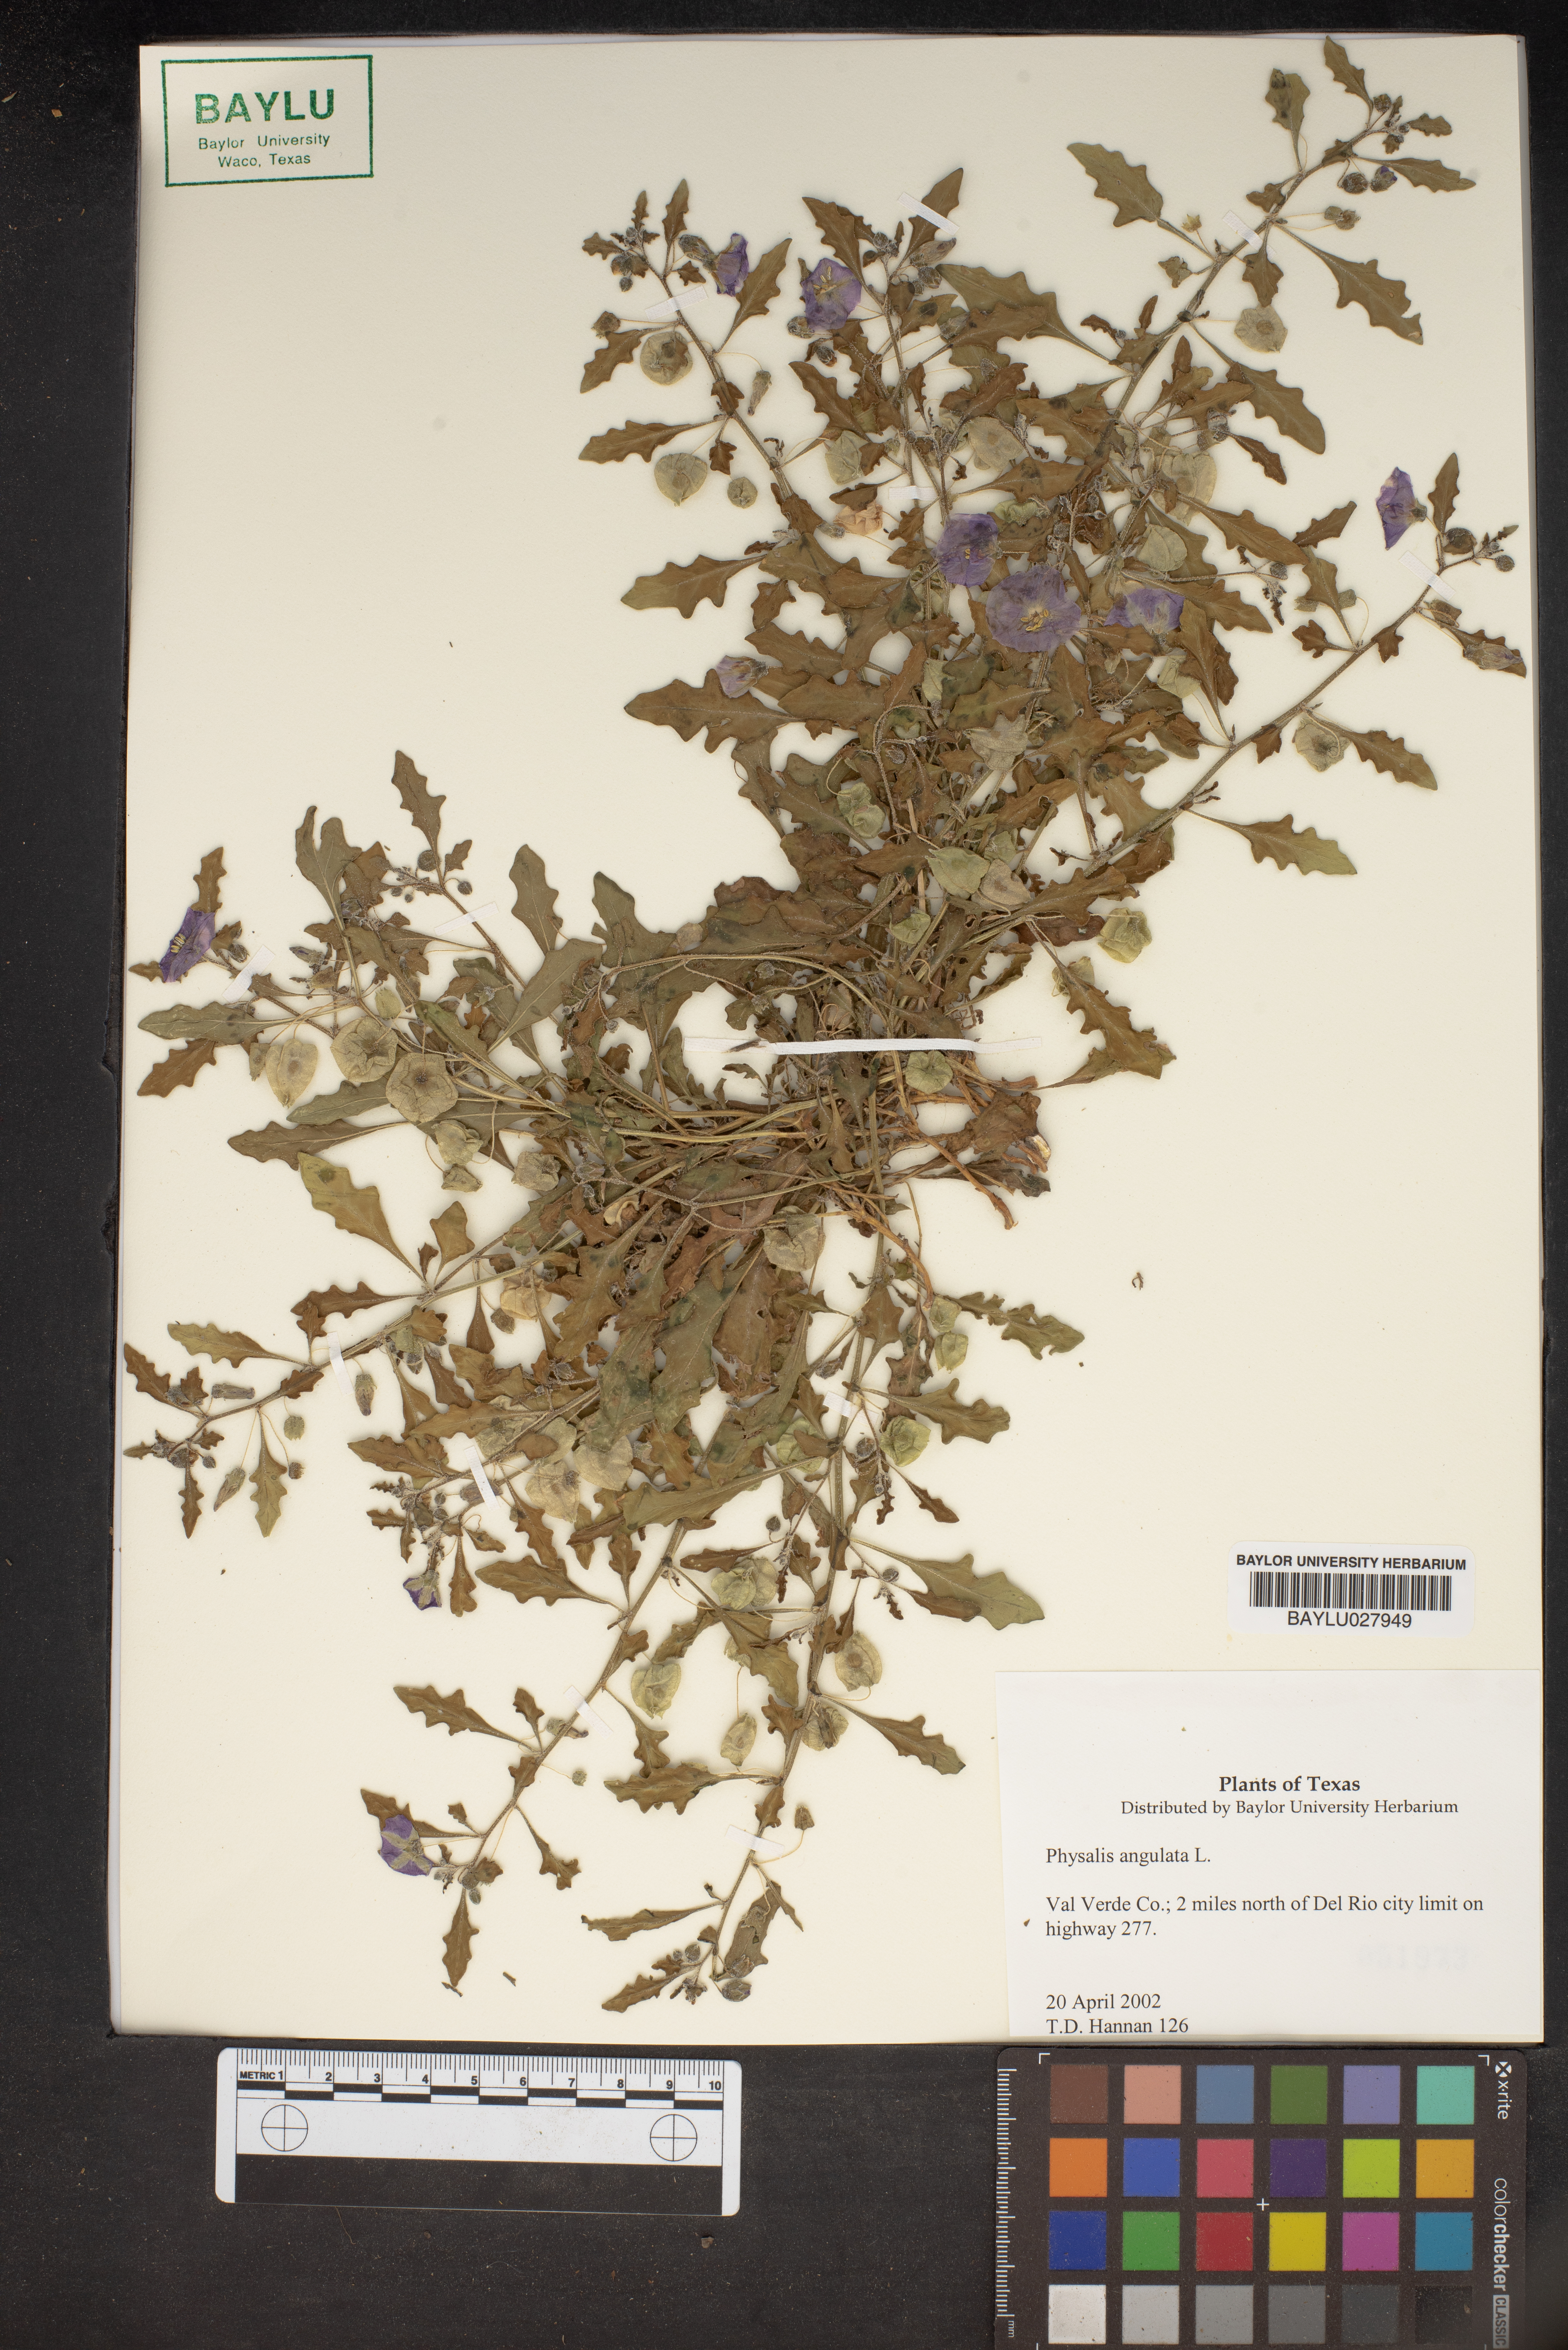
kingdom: Plantae
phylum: Tracheophyta
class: Magnoliopsida
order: Solanales
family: Solanaceae
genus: Physalis
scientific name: Physalis angulata
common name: Angular winter-cherry
